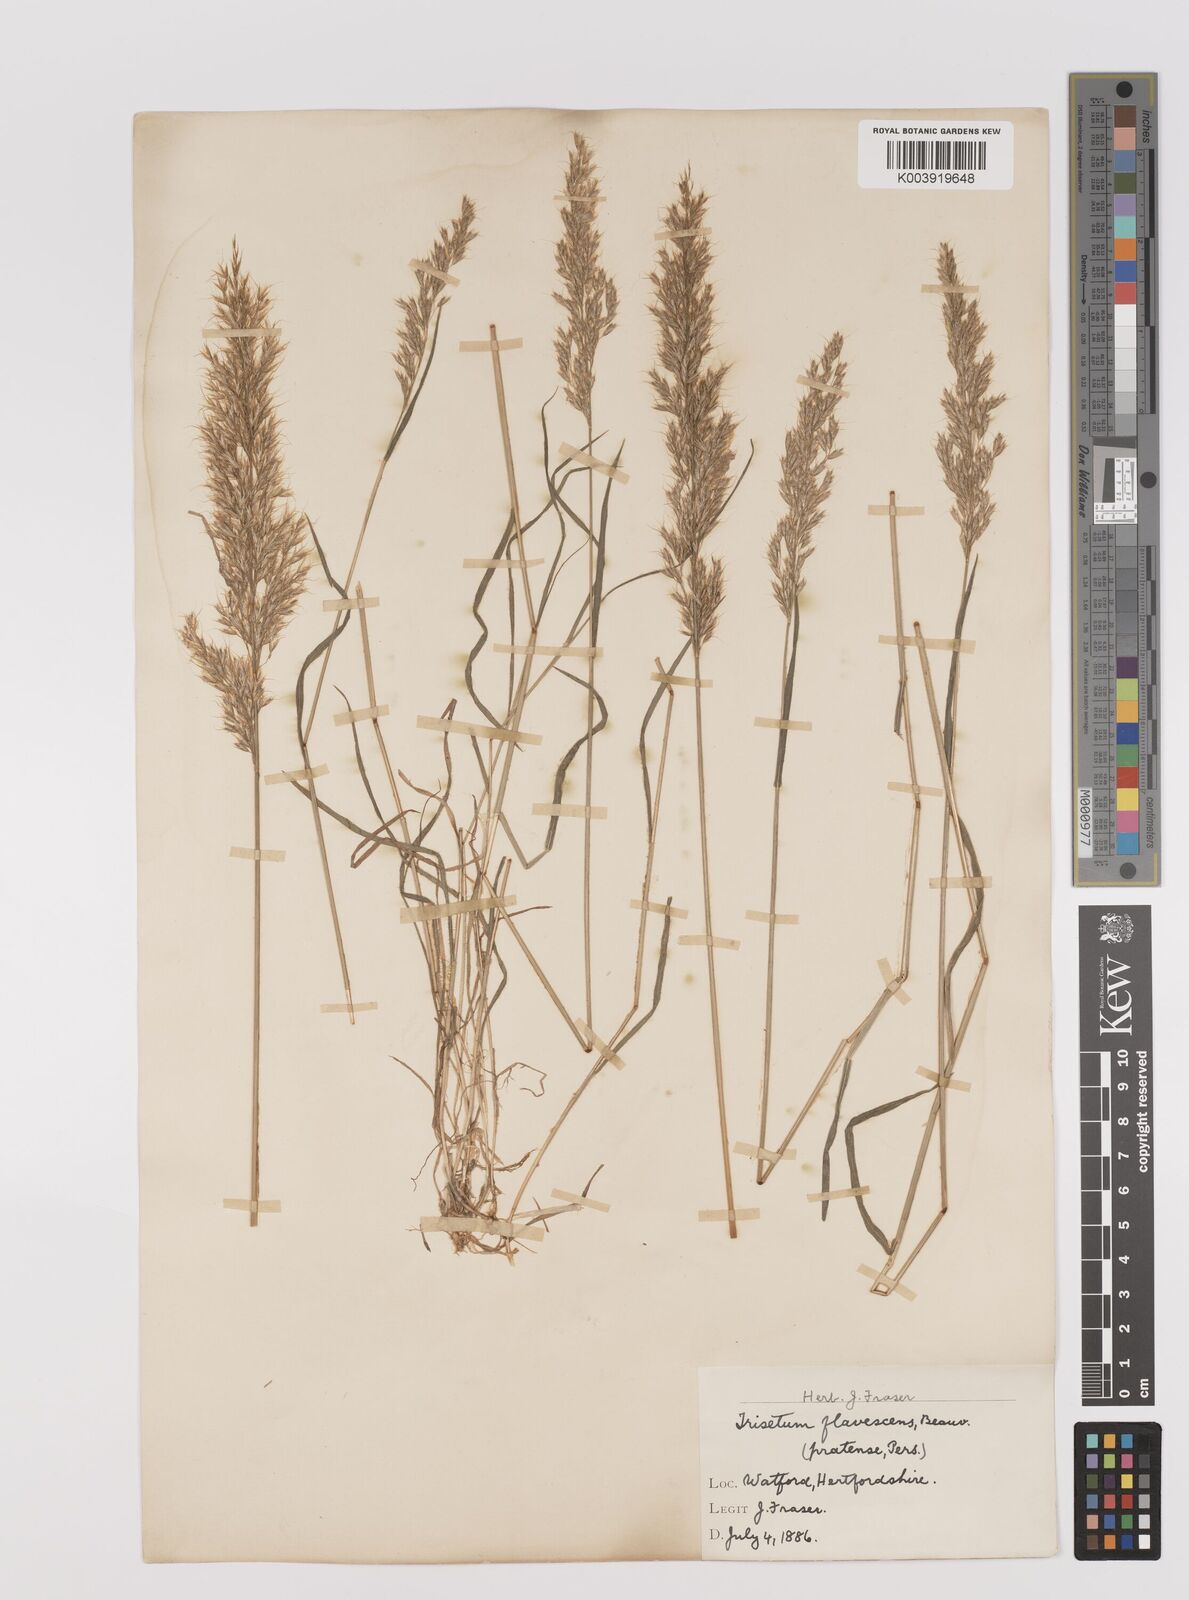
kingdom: Plantae
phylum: Tracheophyta
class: Liliopsida
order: Poales
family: Poaceae
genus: Trisetum
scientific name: Trisetum flavescens
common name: Yellow oat-grass
